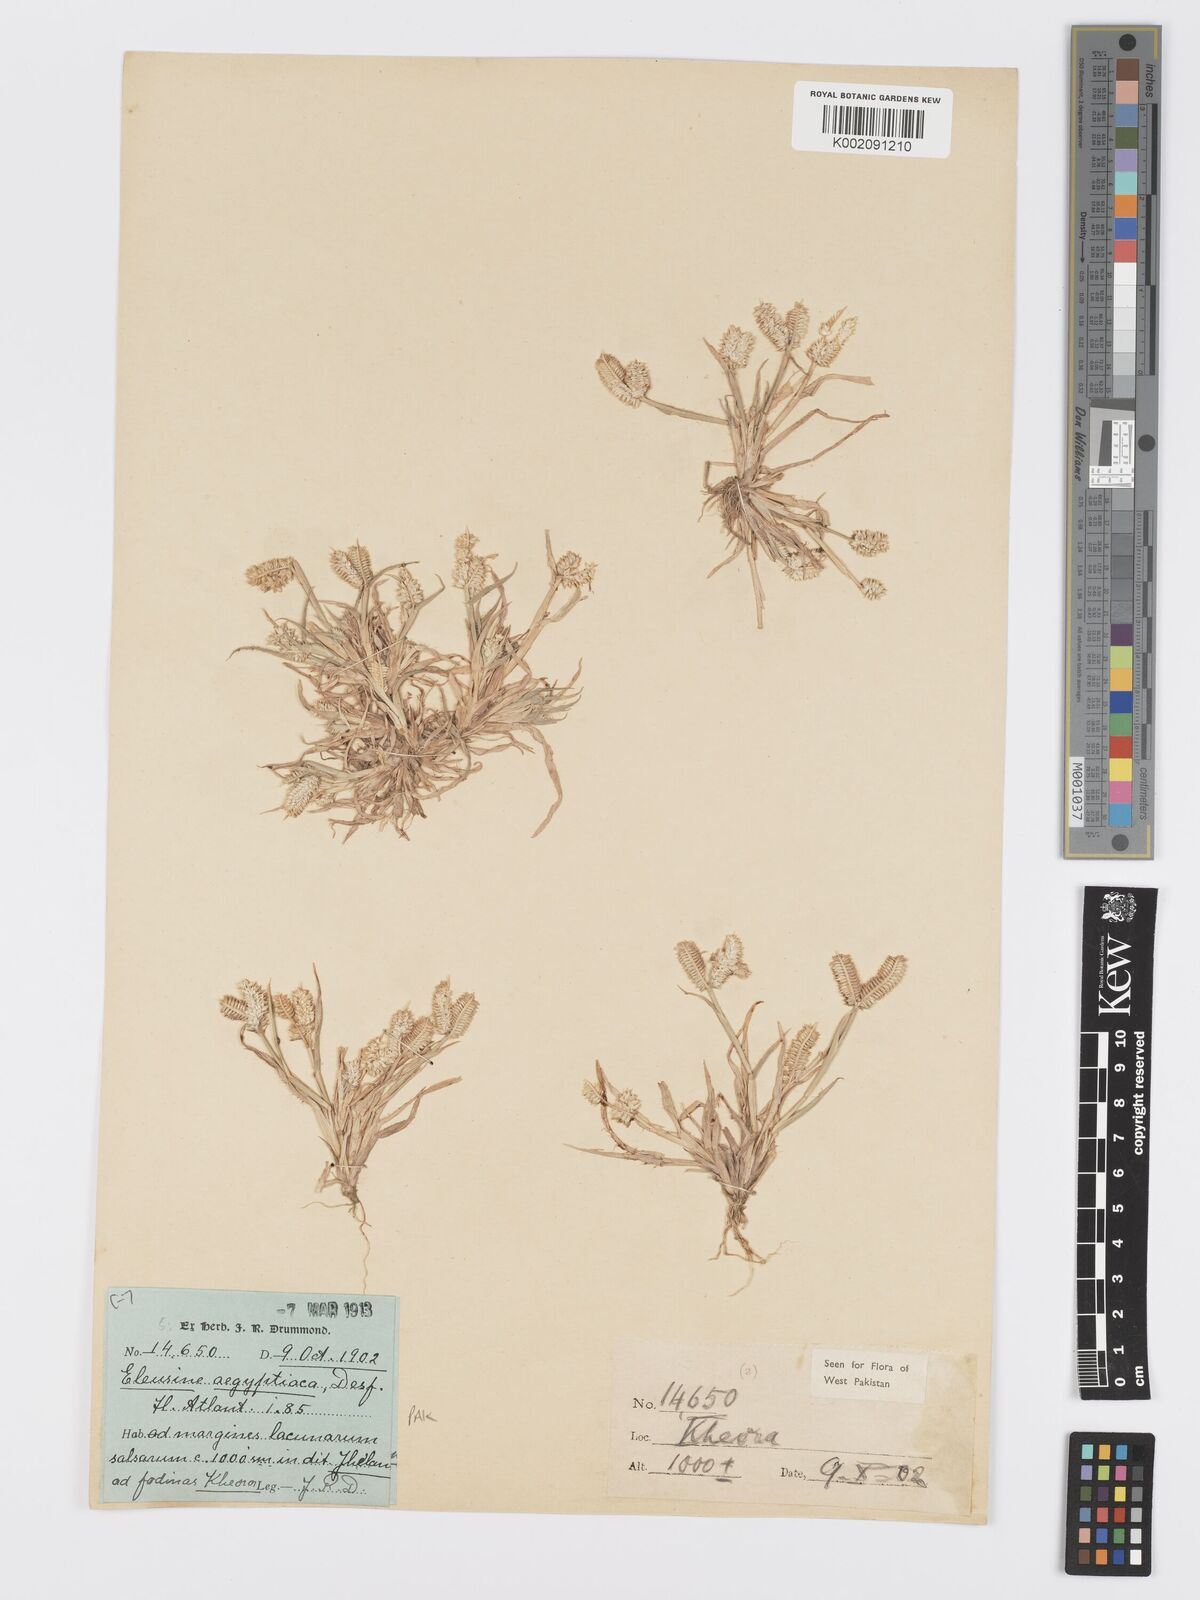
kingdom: Plantae
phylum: Tracheophyta
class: Liliopsida
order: Poales
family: Poaceae
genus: Dactyloctenium
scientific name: Dactyloctenium aegyptium
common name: Egyptian grass
